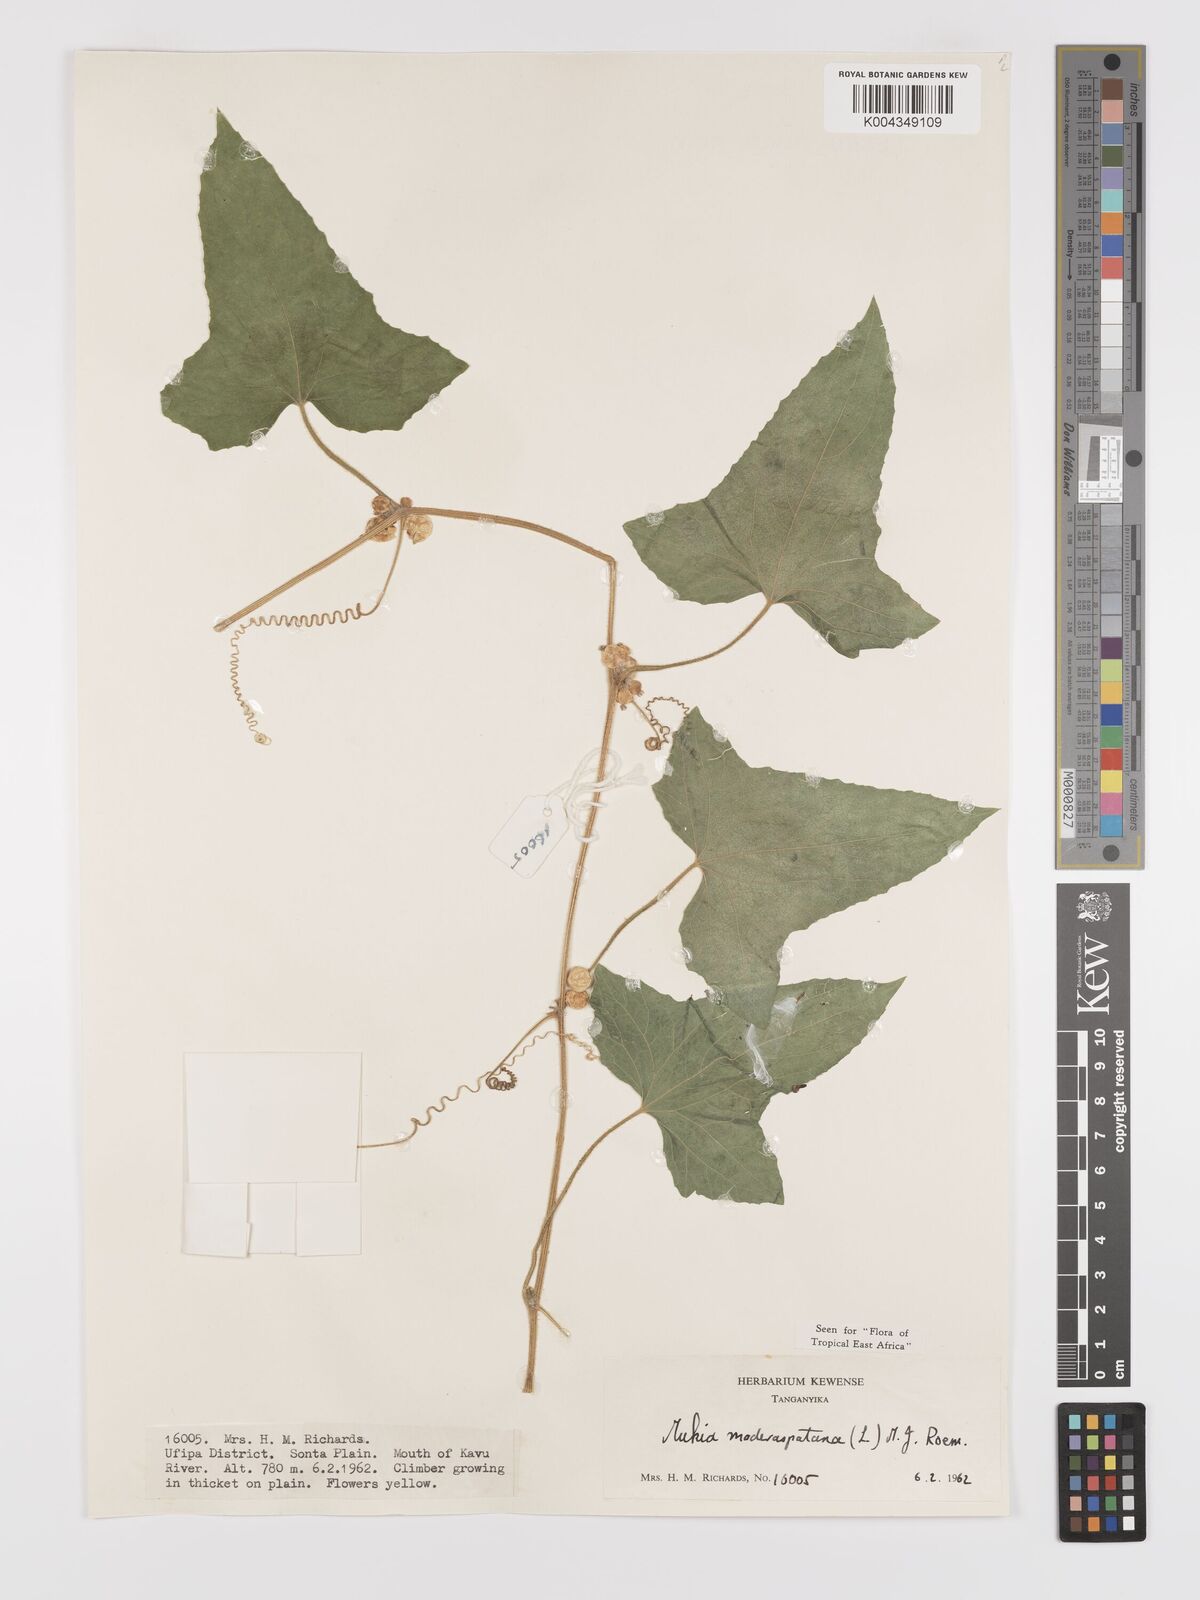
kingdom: Plantae
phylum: Tracheophyta
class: Magnoliopsida
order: Cucurbitales
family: Cucurbitaceae
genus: Cucumis
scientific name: Cucumis maderaspatanus
